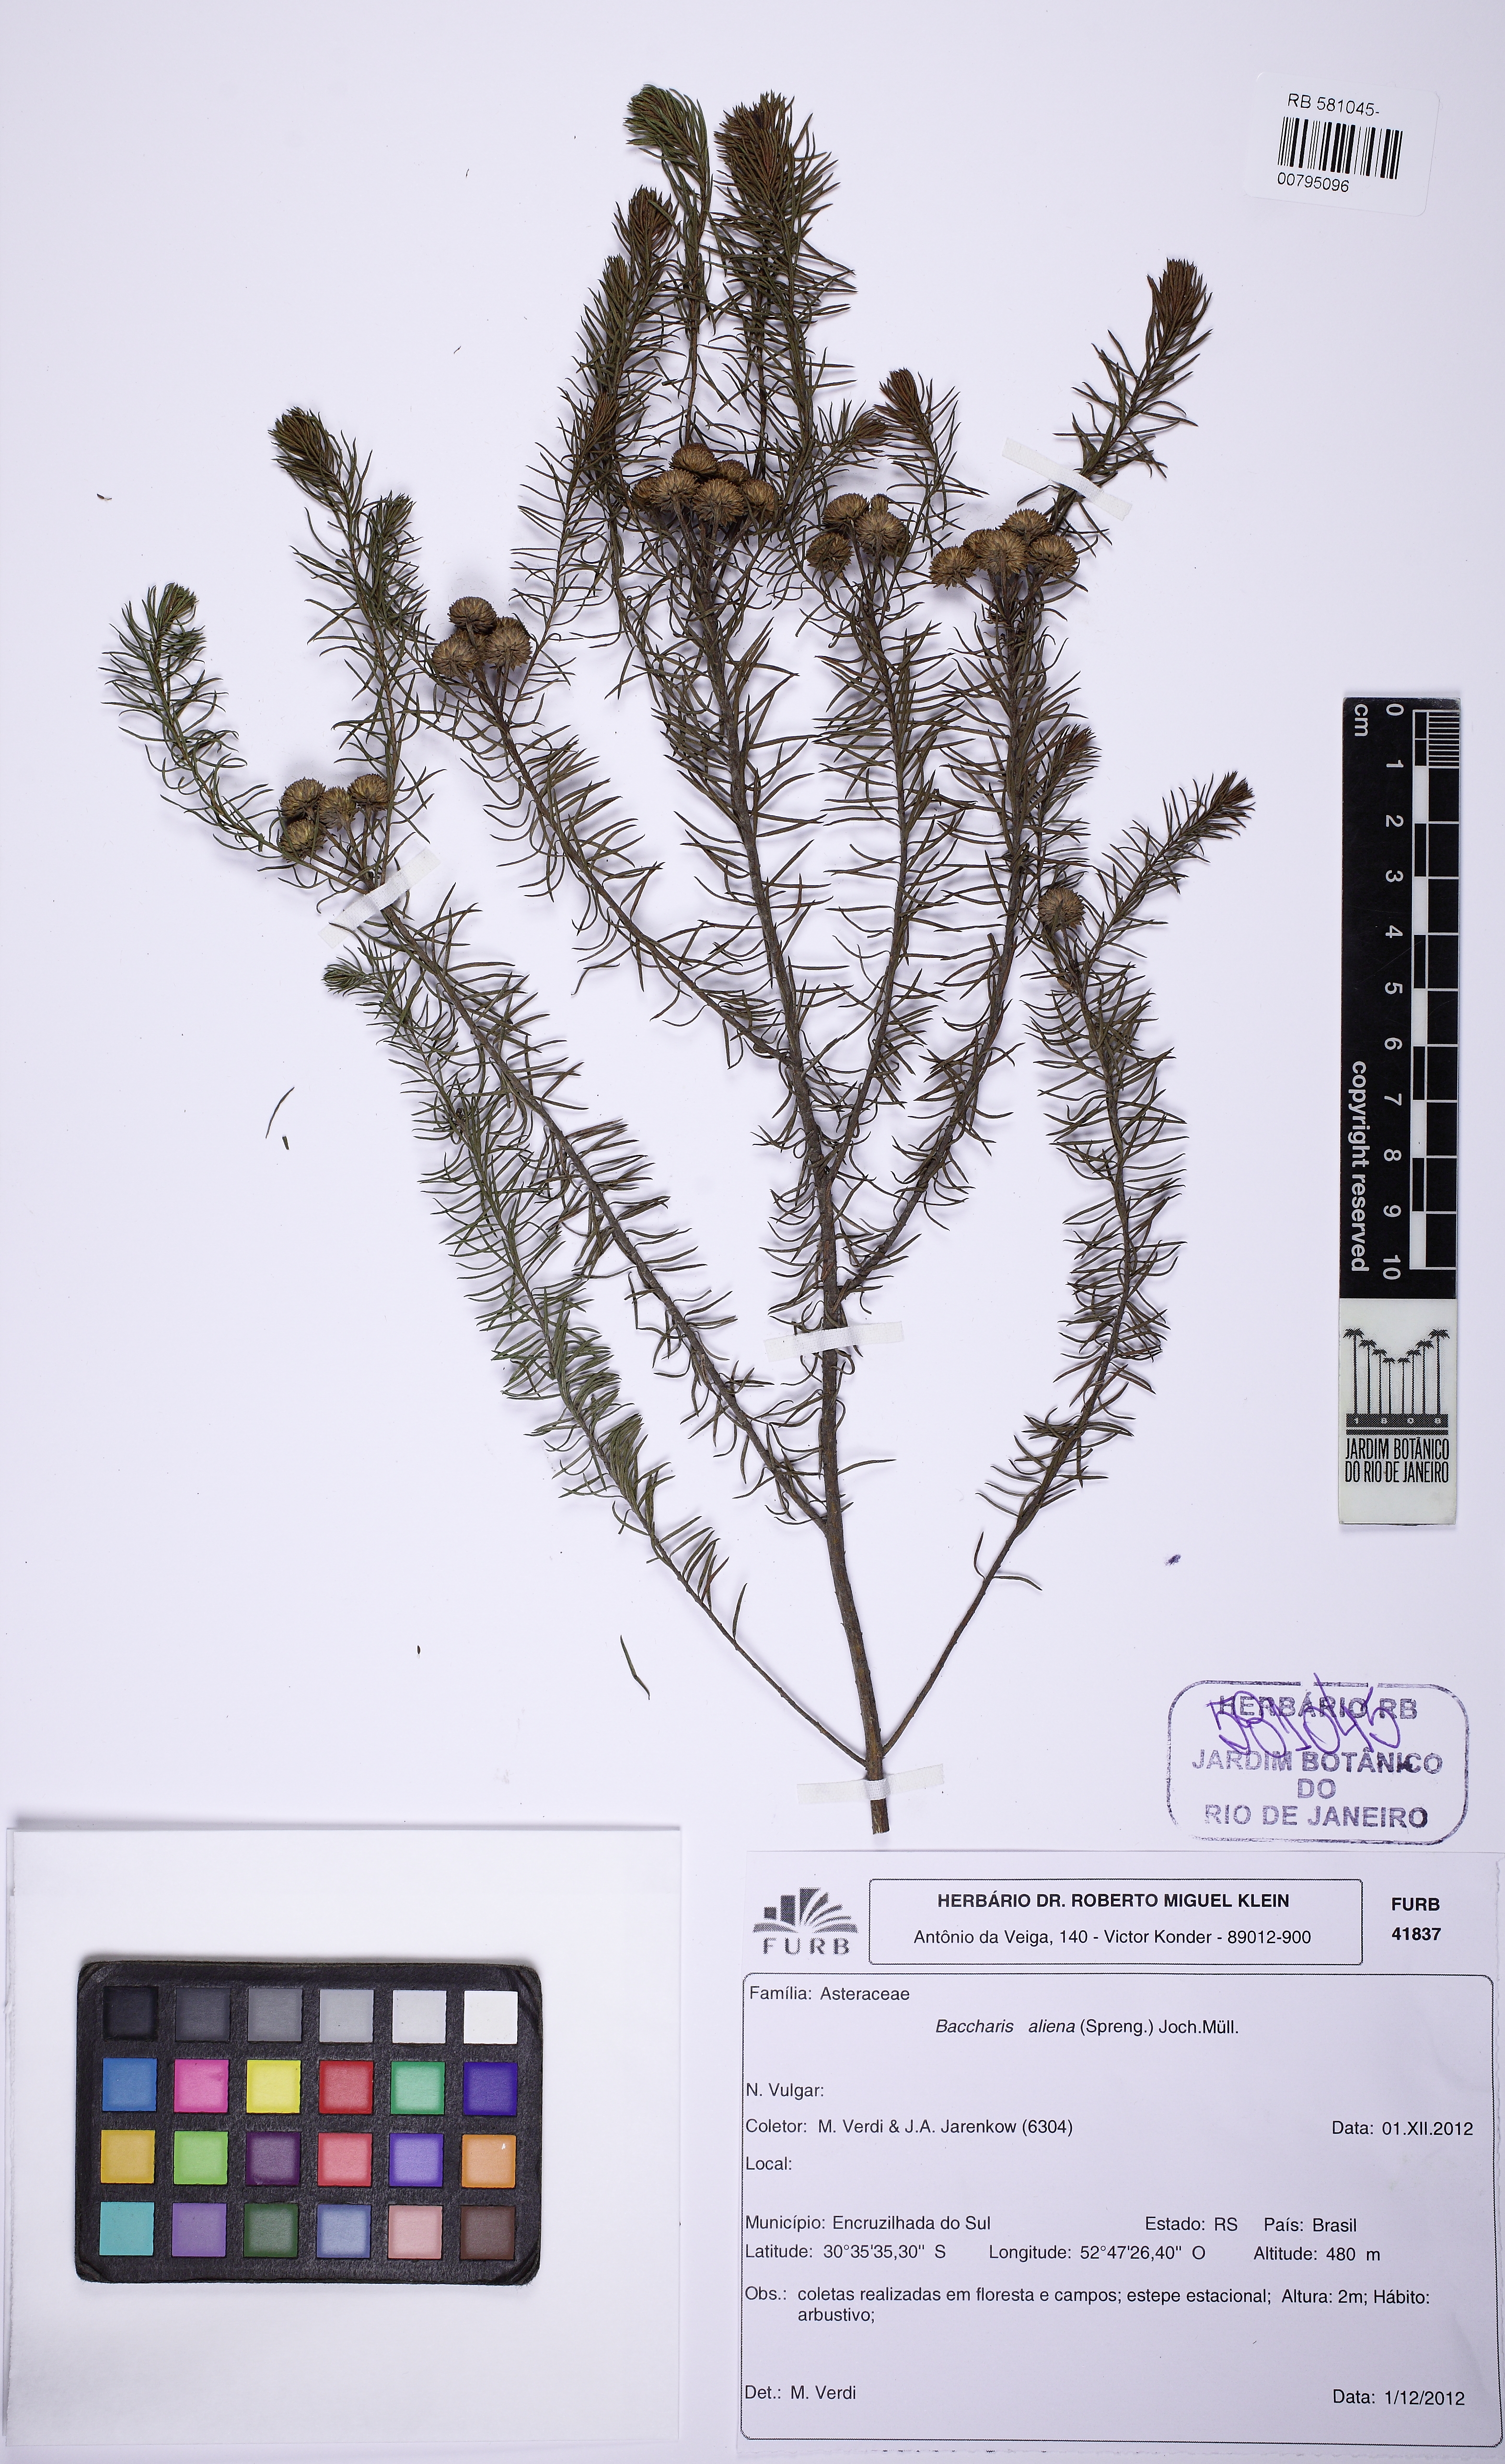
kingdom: Plantae
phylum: Tracheophyta
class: Magnoliopsida
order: Asterales
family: Asteraceae
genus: Baccharis
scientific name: Baccharis aliena
